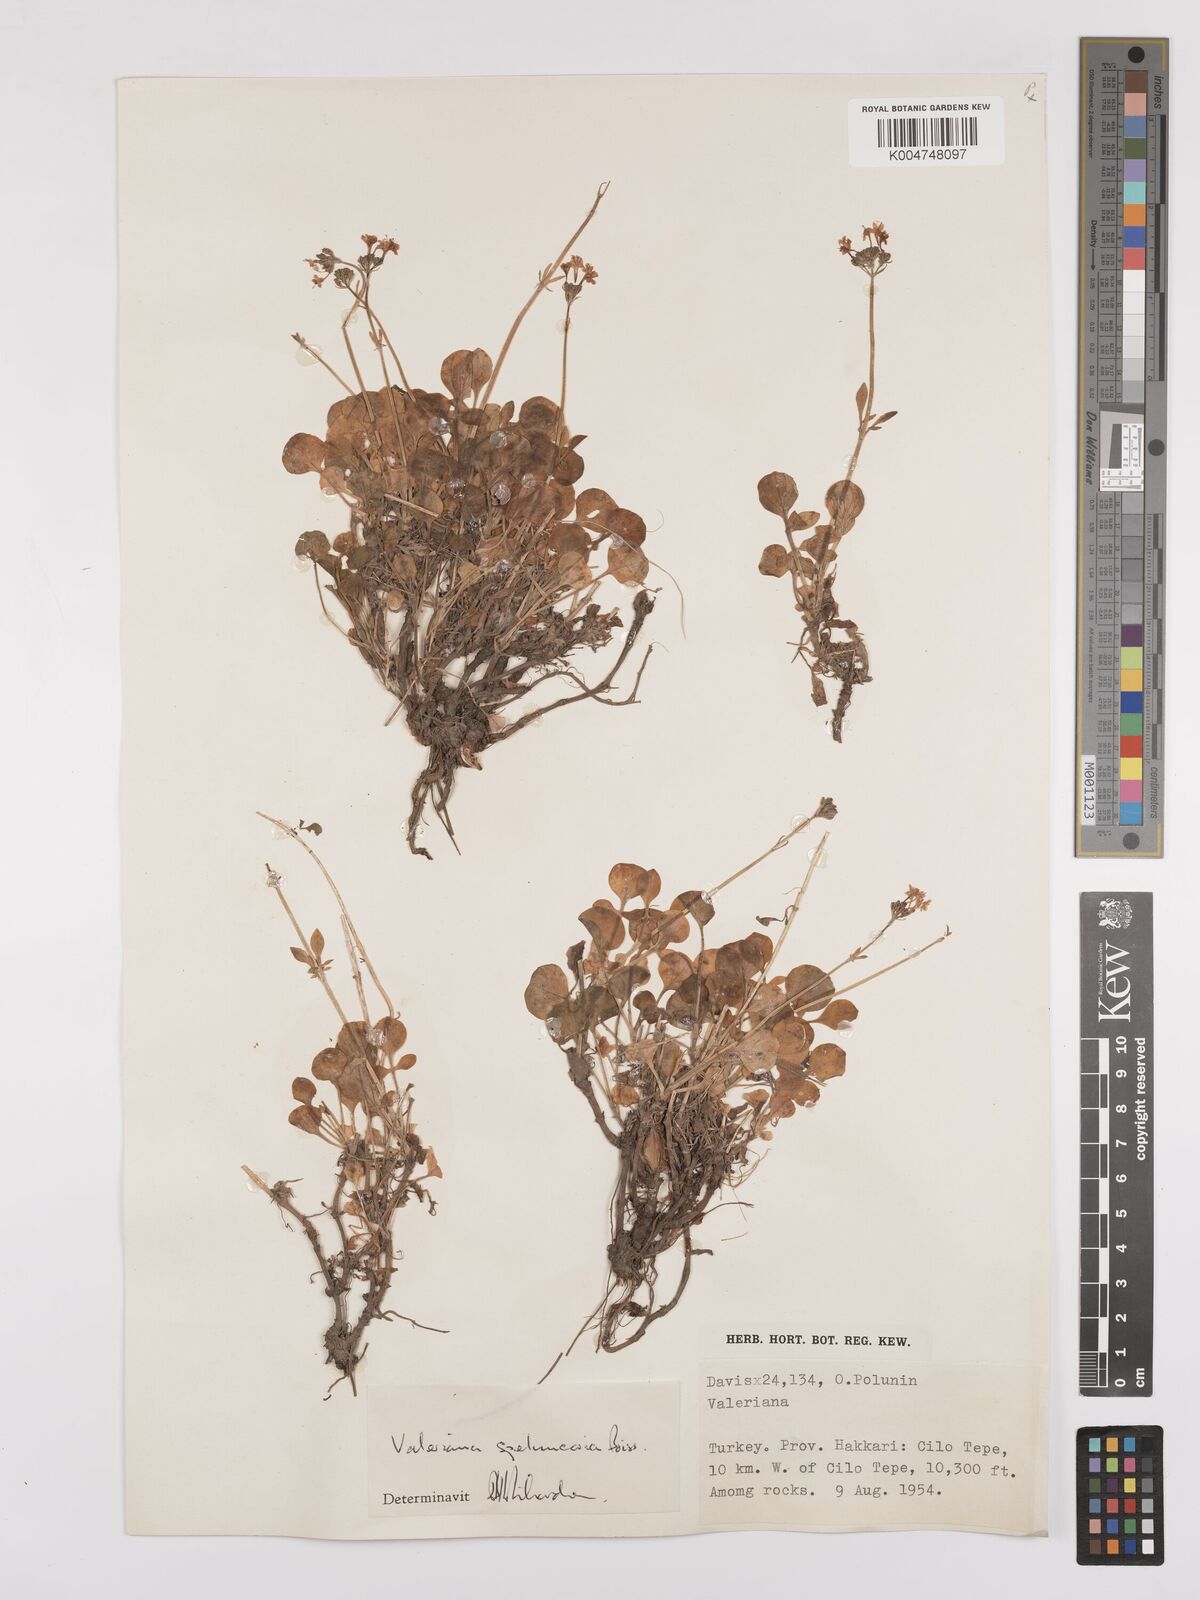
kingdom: Plantae
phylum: Tracheophyta
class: Magnoliopsida
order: Dipsacales
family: Caprifoliaceae
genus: Valeriana
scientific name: Valeriana petrophila
